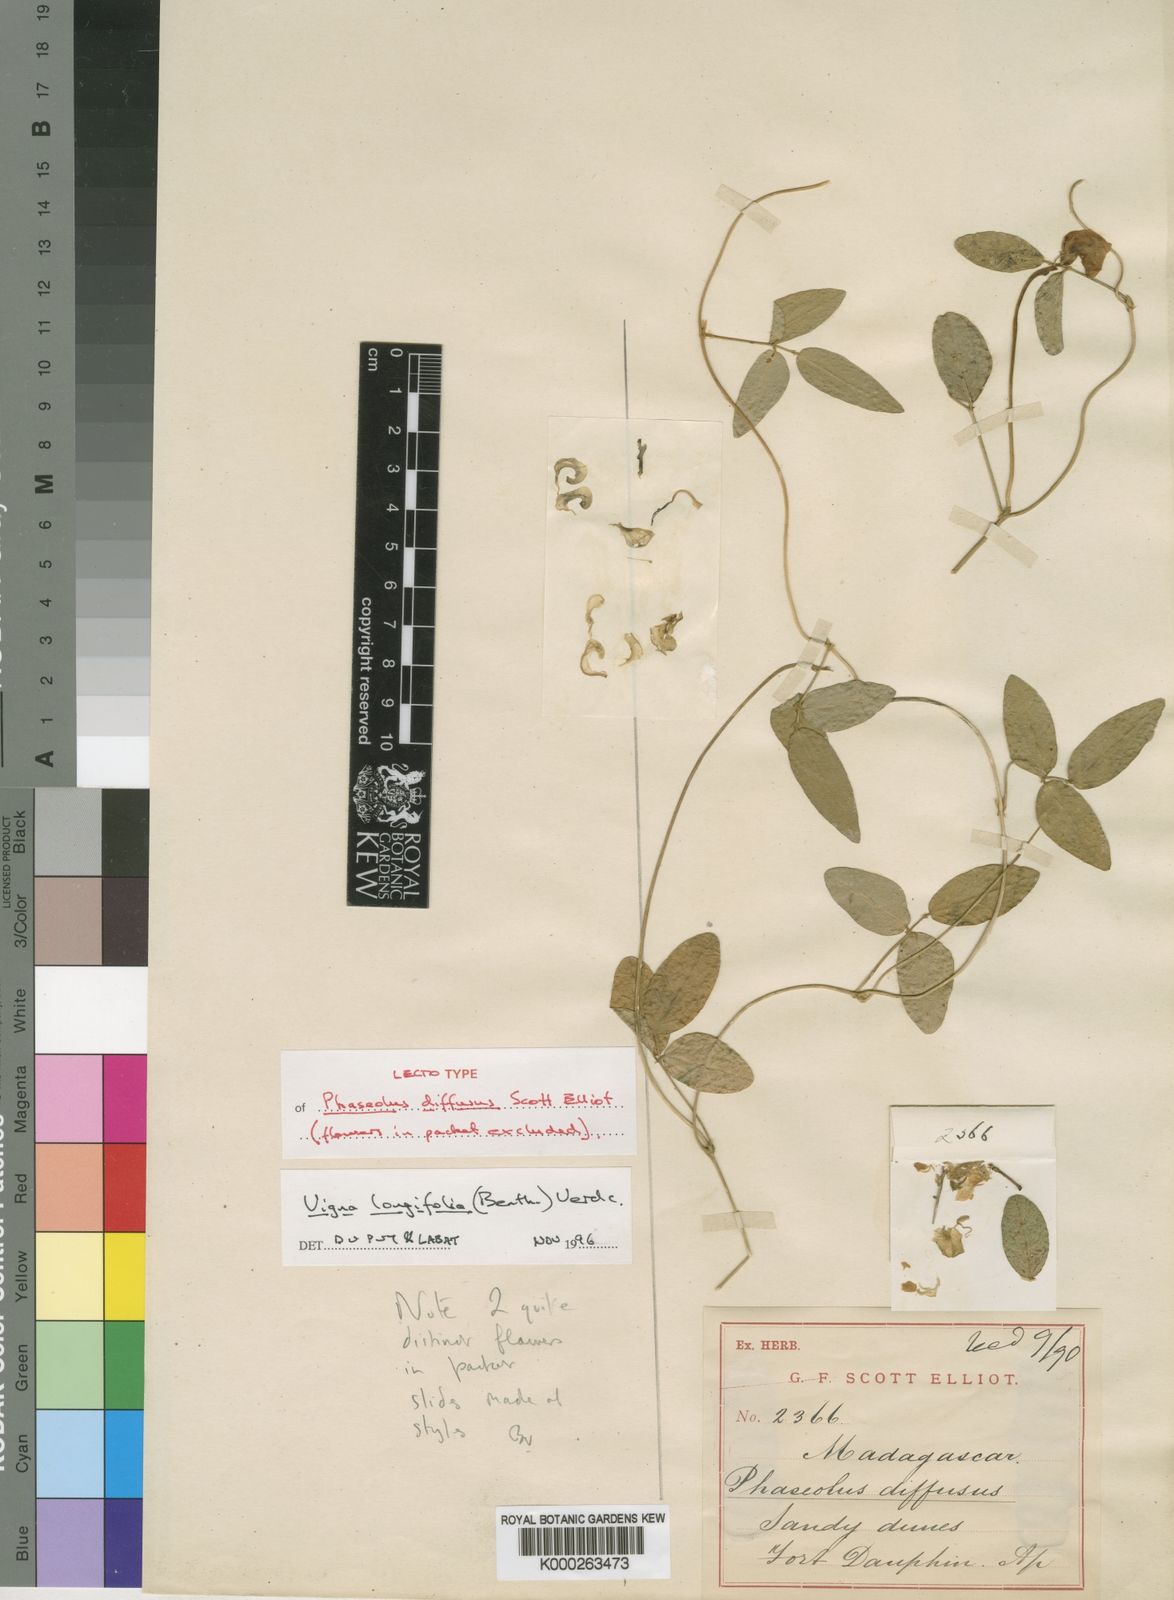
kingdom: Plantae
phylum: Tracheophyta
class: Magnoliopsida
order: Fabales
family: Fabaceae
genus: Vigna
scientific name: Vigna longifolia
